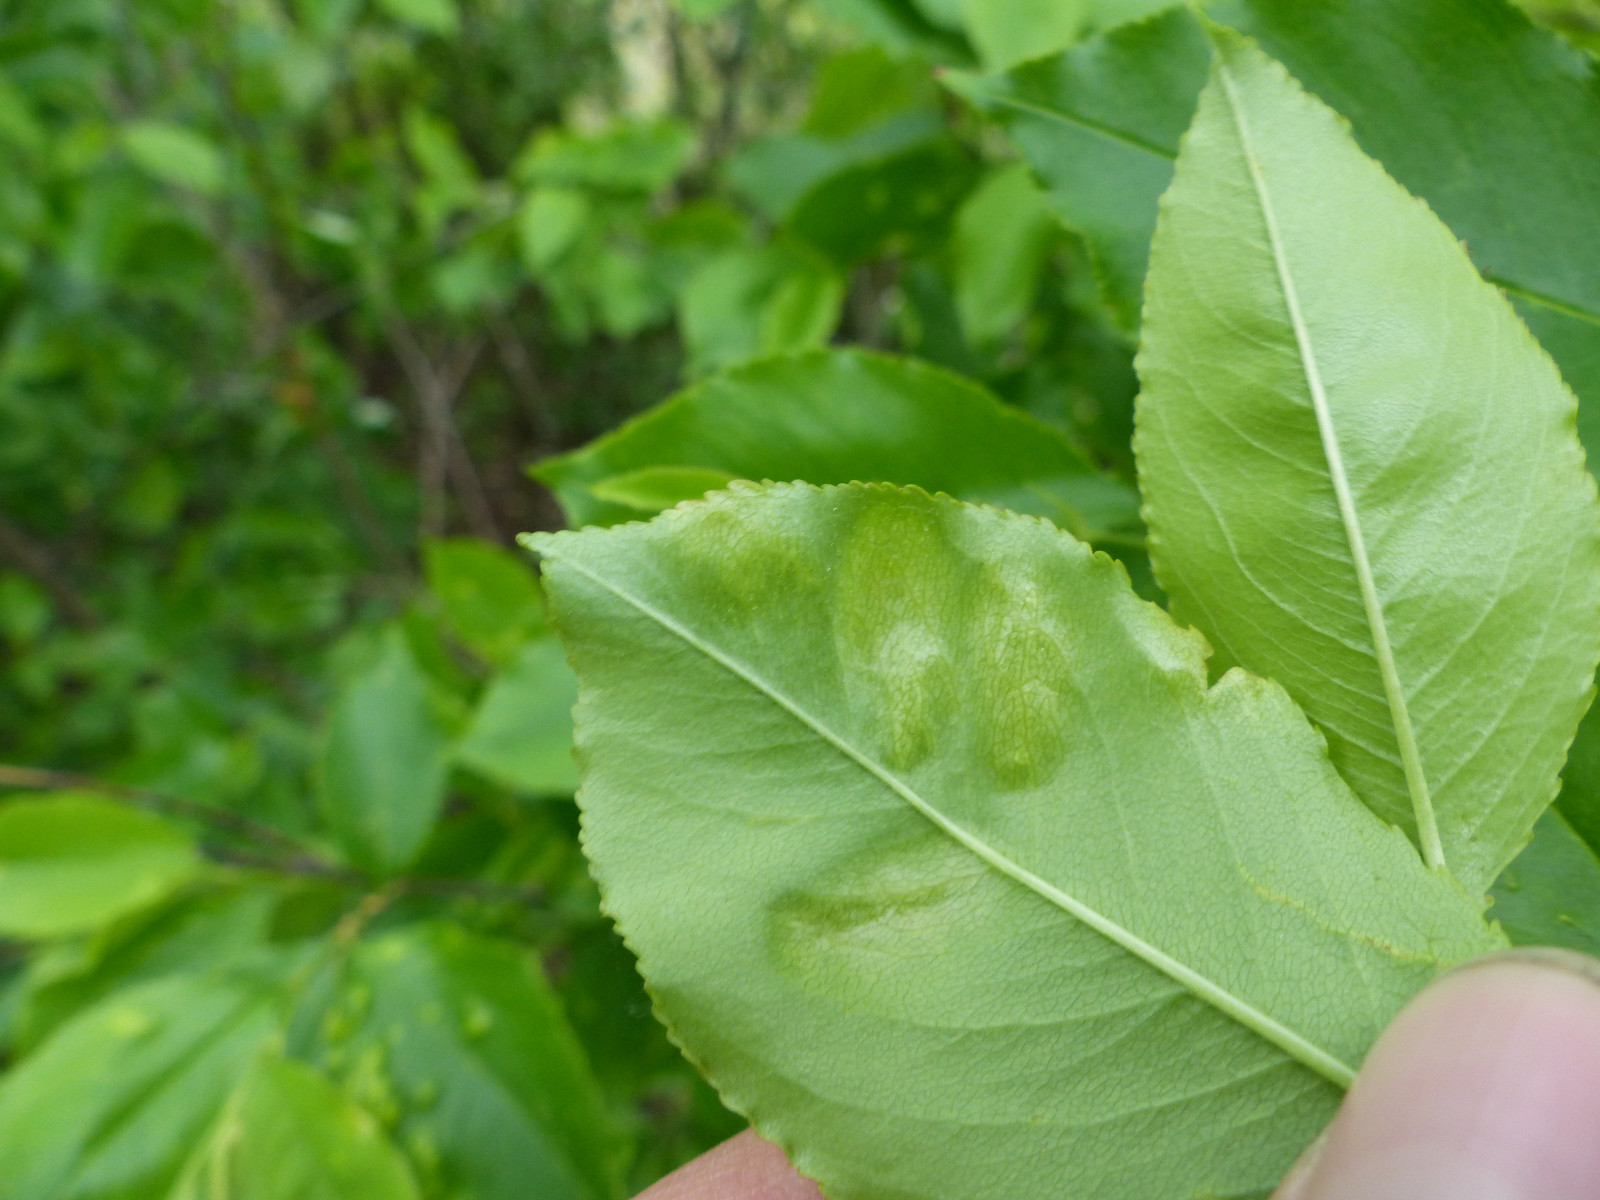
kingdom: Fungi
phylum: Ascomycota
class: Taphrinomycetes
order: Taphrinales
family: Taphrinaceae
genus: Taphrina
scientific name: Taphrina farlowii
